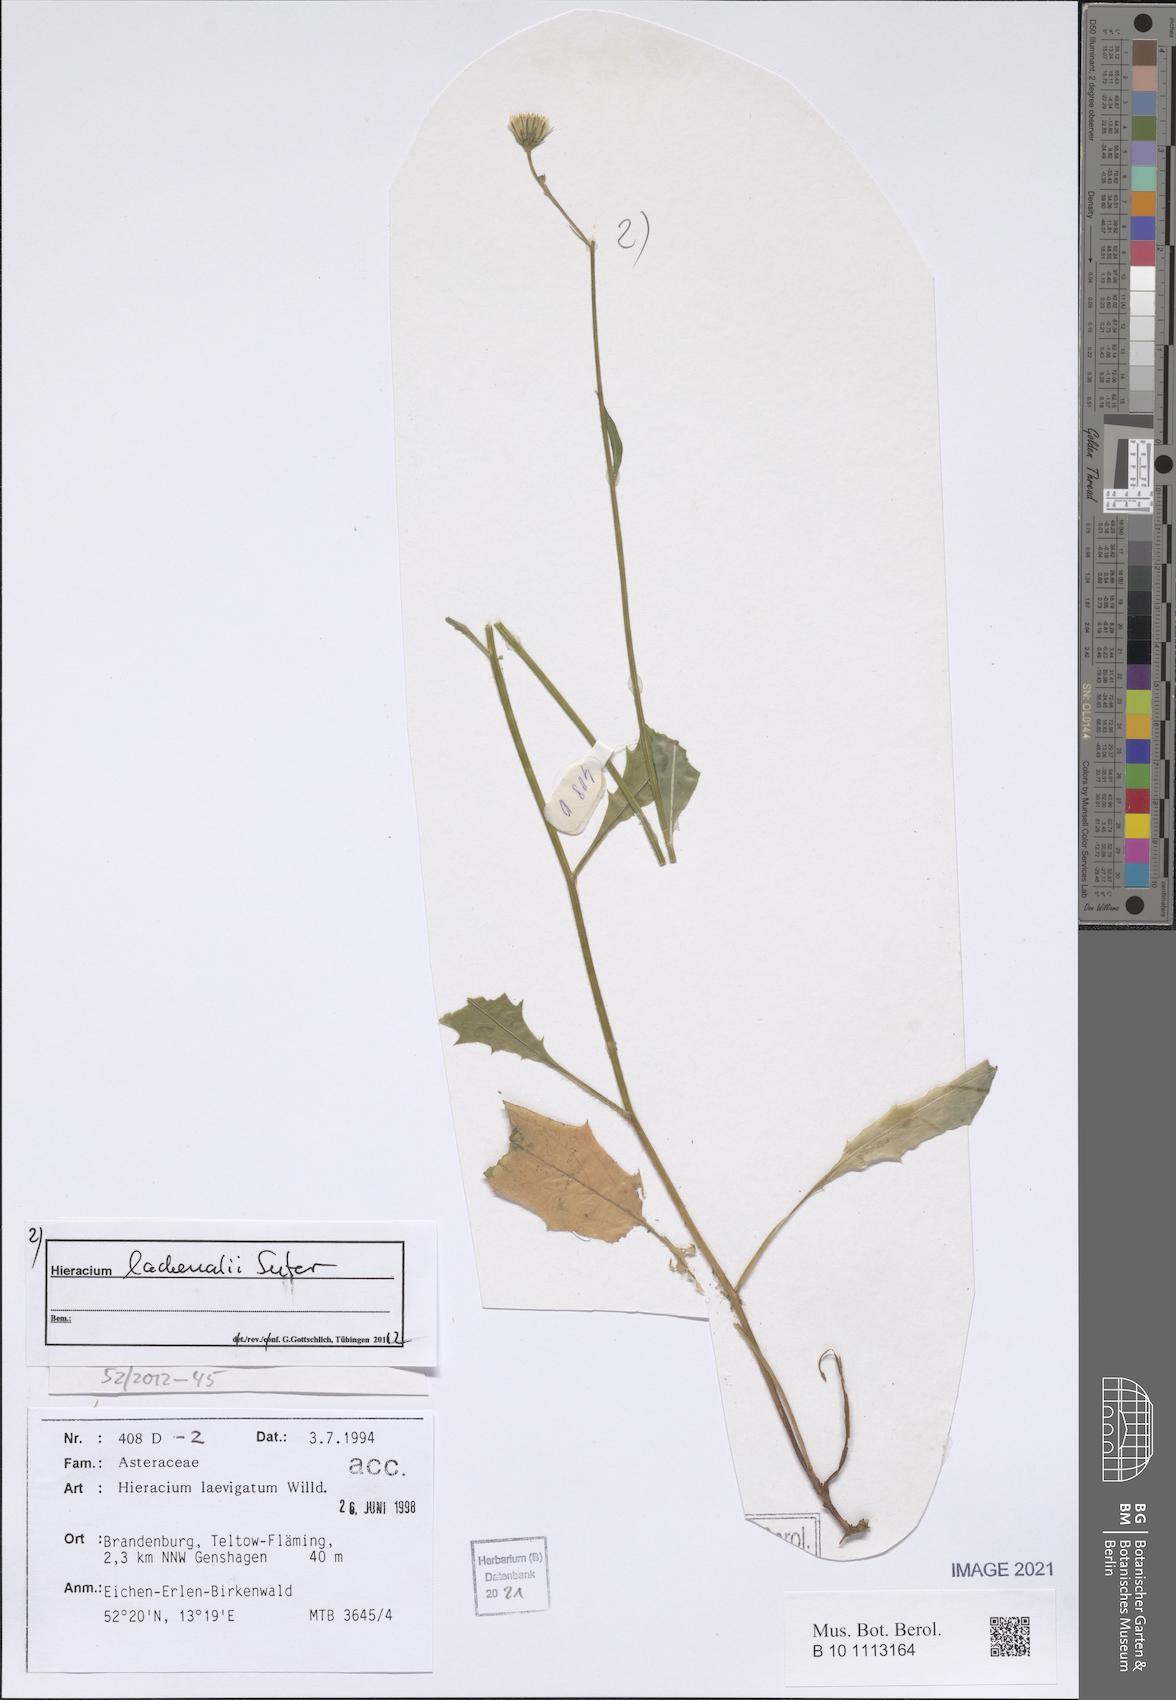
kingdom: Plantae
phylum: Tracheophyta
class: Magnoliopsida
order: Asterales
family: Asteraceae
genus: Hieracium
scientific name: Hieracium lachenalii
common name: Common hawkweed
